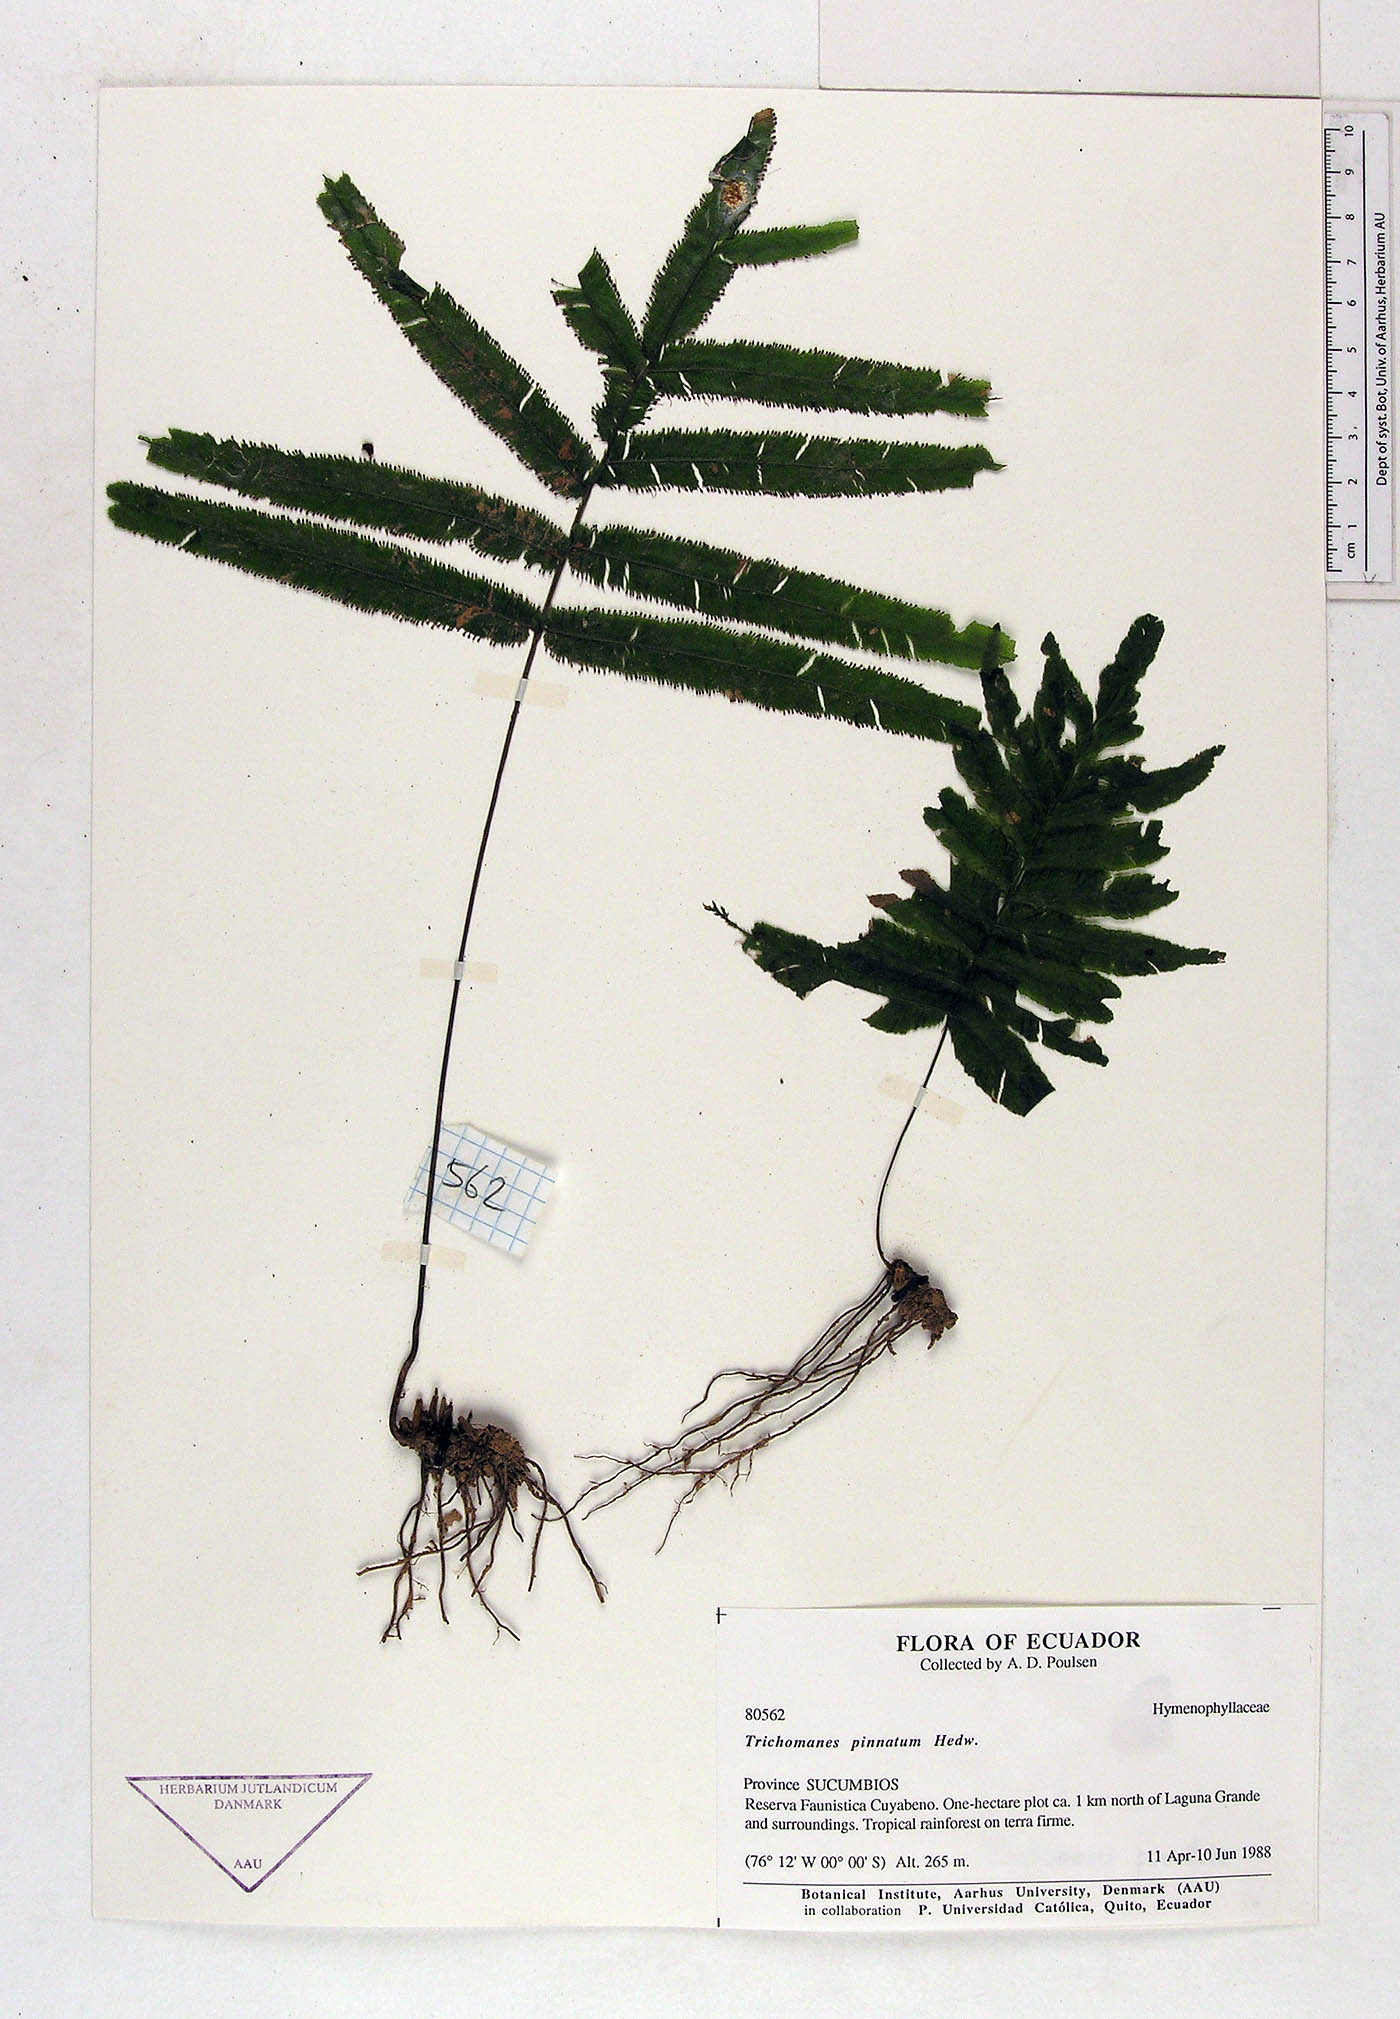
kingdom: Plantae
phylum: Tracheophyta
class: Polypodiopsida
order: Hymenophyllales
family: Hymenophyllaceae
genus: Trichomanes
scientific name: Trichomanes pinnatum
